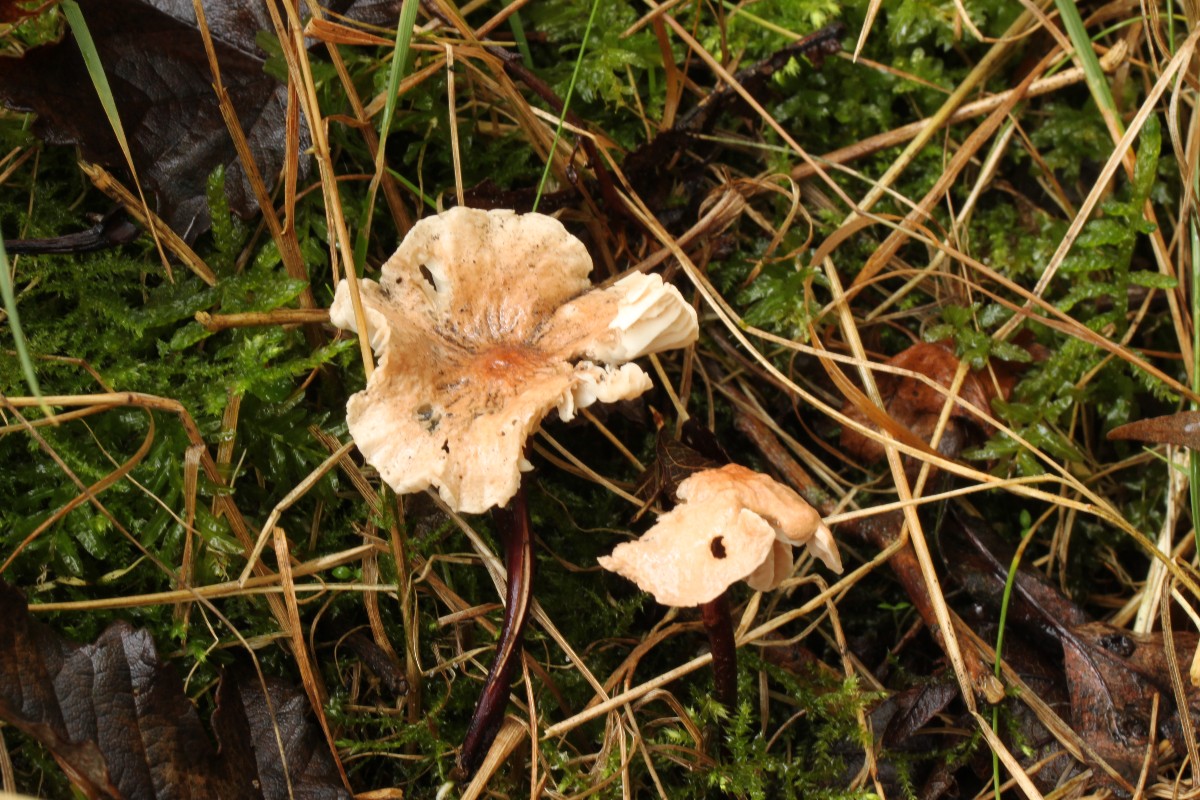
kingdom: Fungi
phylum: Basidiomycota
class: Agaricomycetes
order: Agaricales
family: Omphalotaceae
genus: Mycetinis
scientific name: Mycetinis scorodonius
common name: lille løghat
